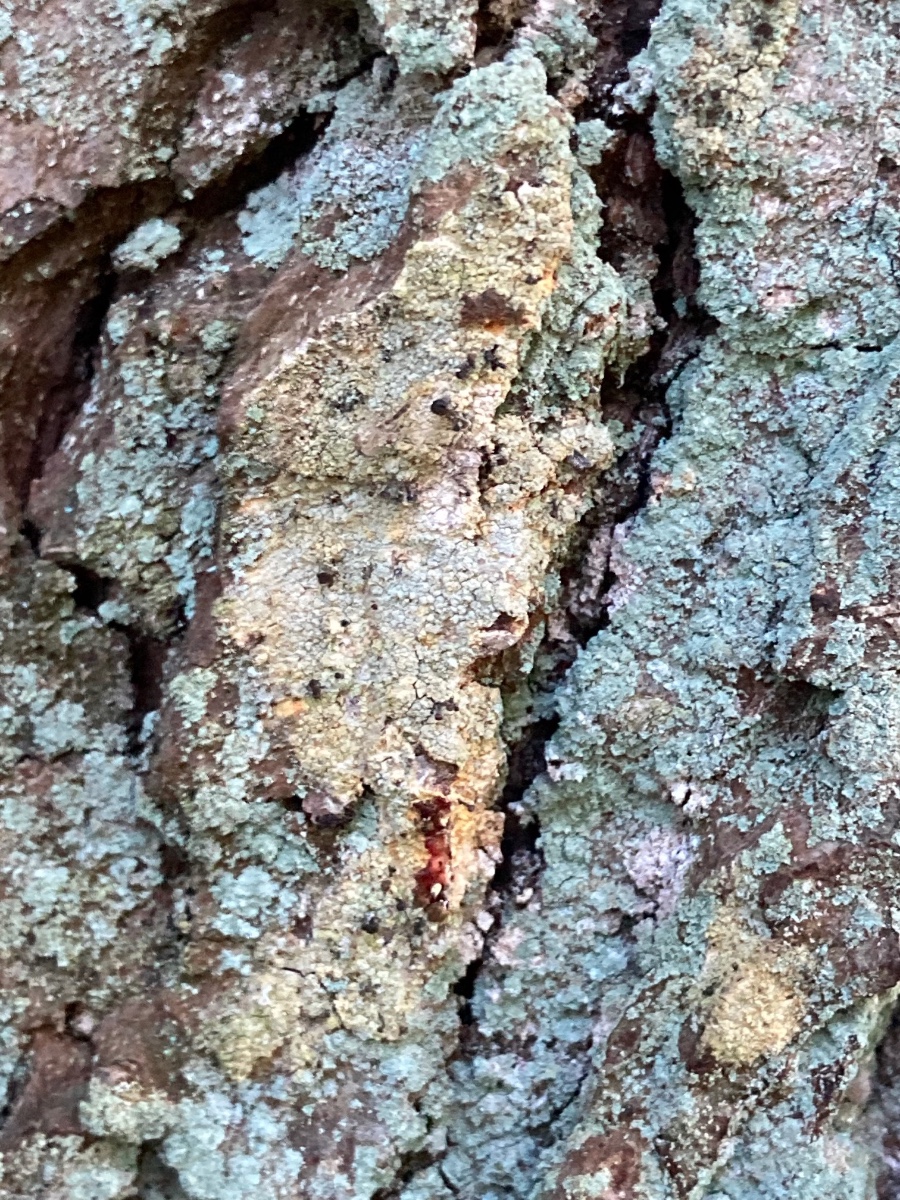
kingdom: Fungi
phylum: Ascomycota
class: Coniocybomycetes
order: Coniocybales
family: Coniocybaceae
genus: Chaenotheca
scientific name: Chaenotheca ferruginea
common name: rustbrun knappenålslav
